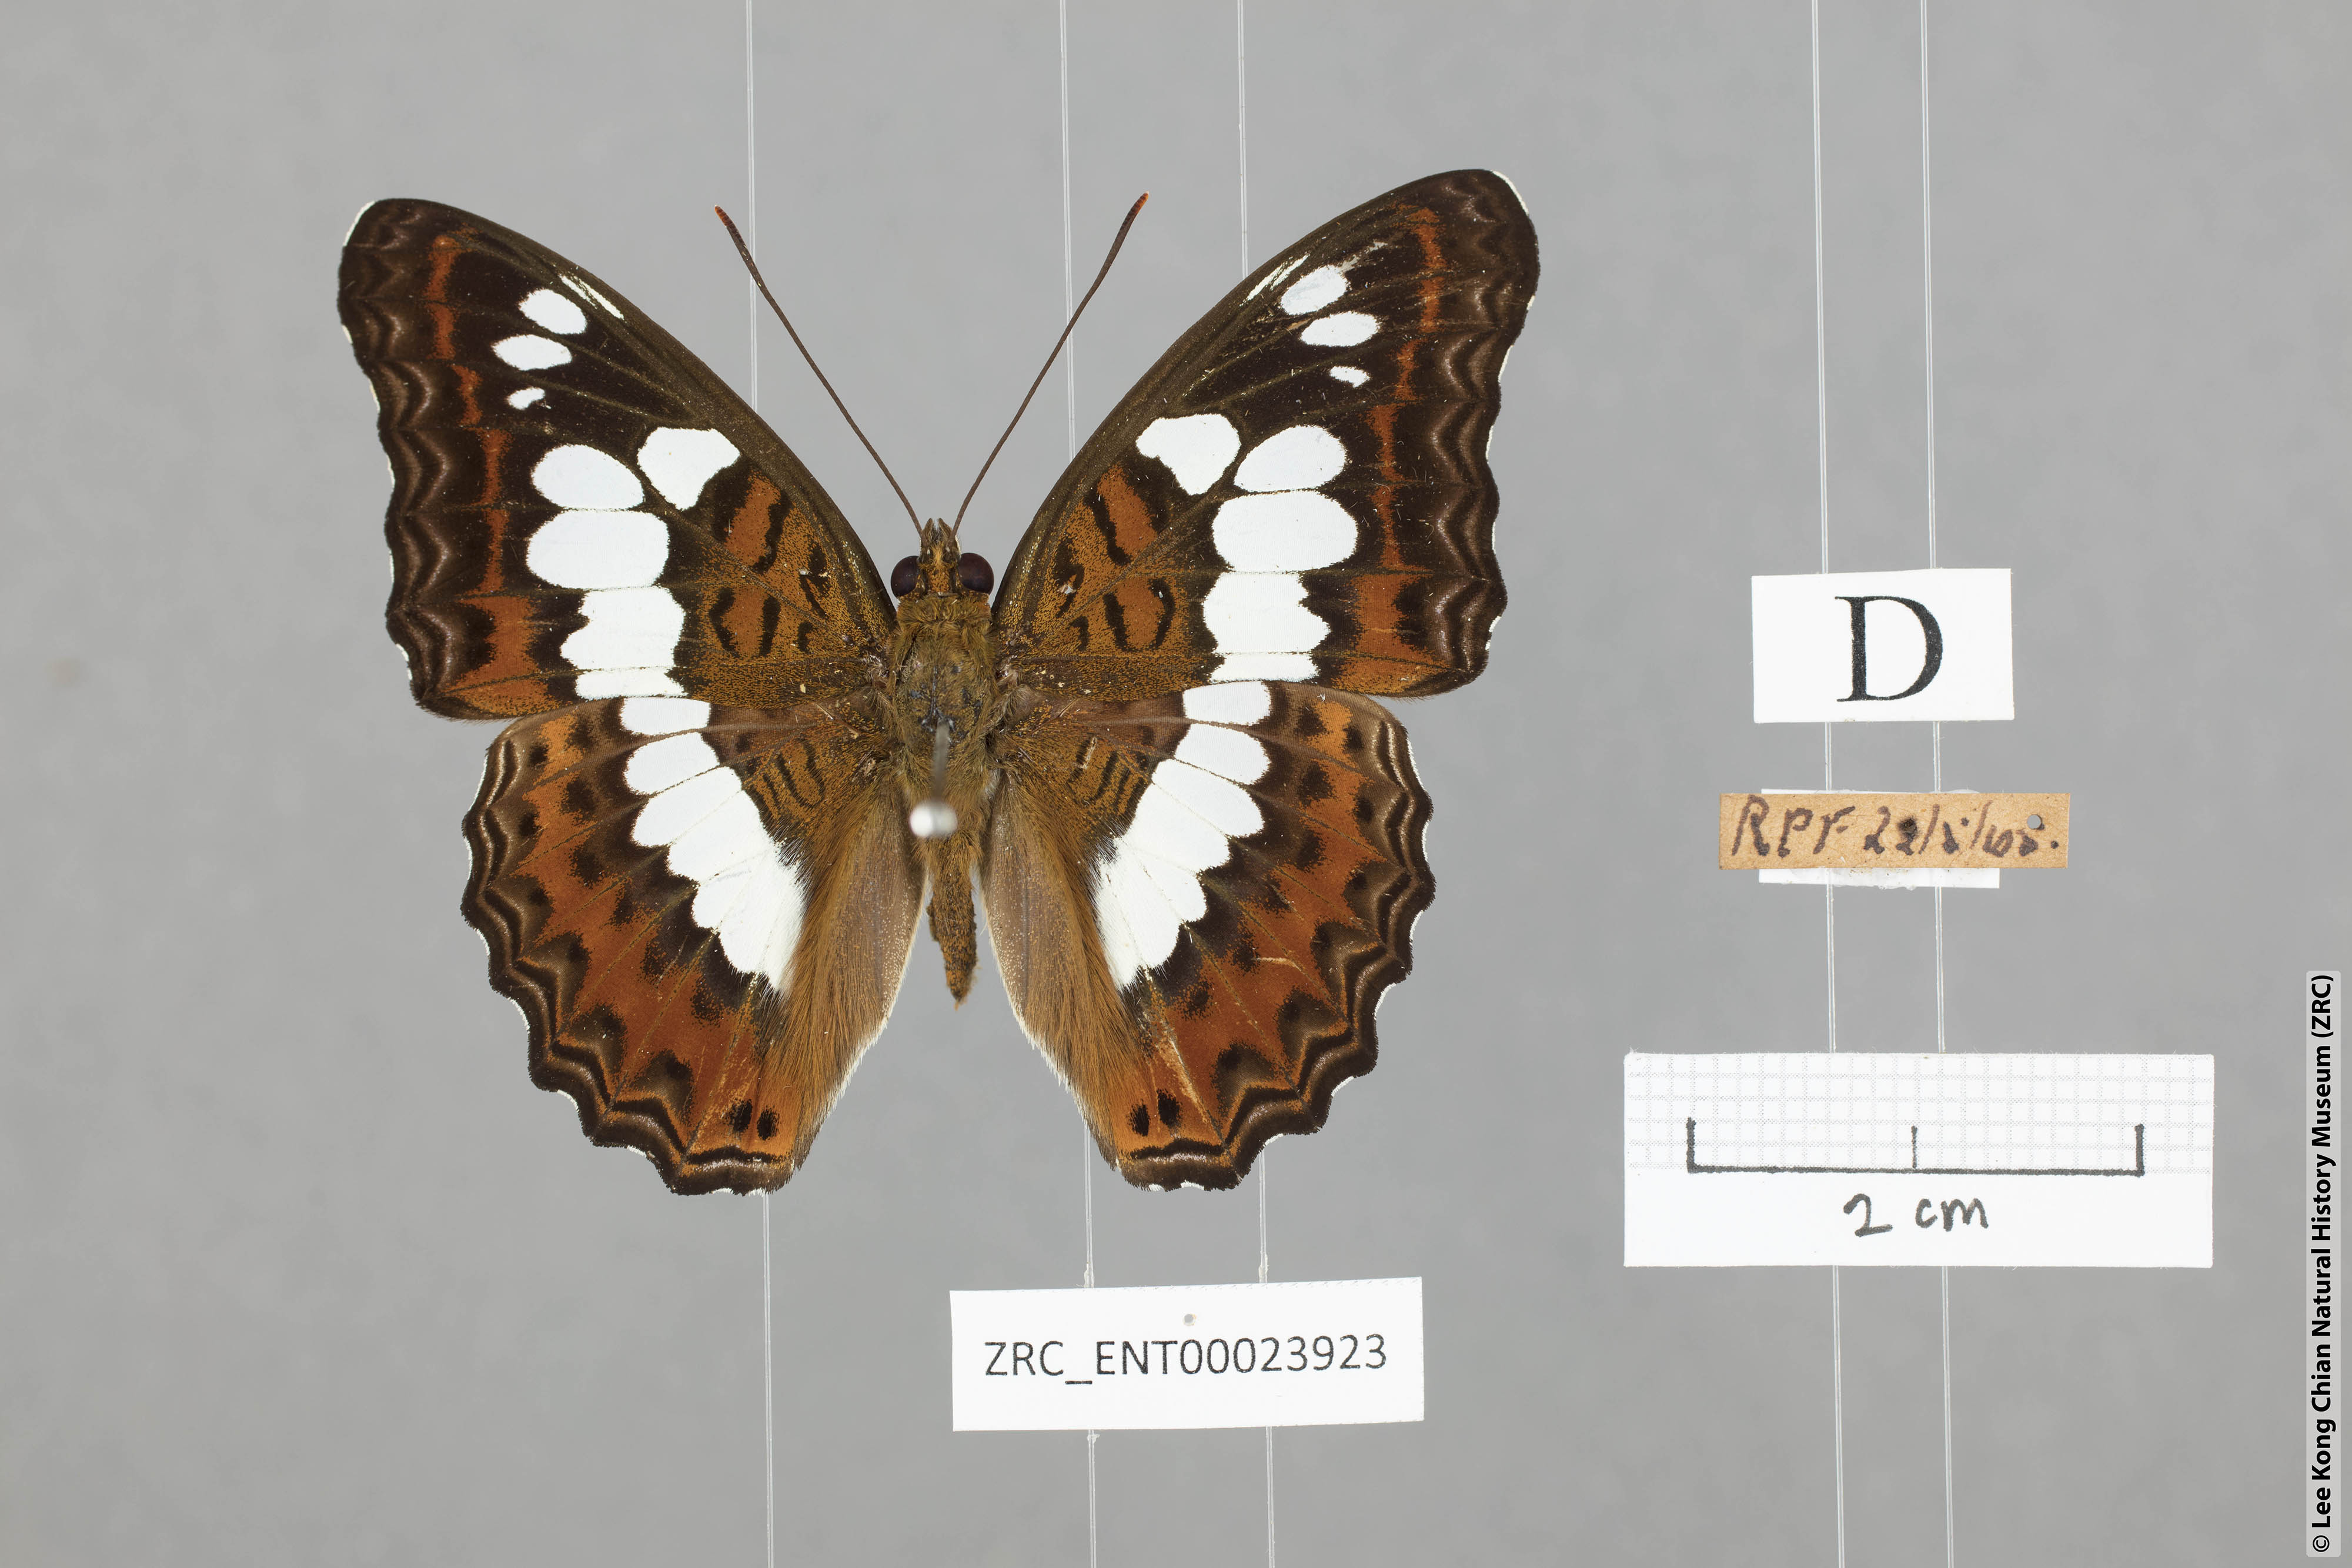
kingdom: Animalia
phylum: Arthropoda
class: Insecta
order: Lepidoptera
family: Nymphalidae
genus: Limenitis
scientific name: Limenitis Moduza procris
